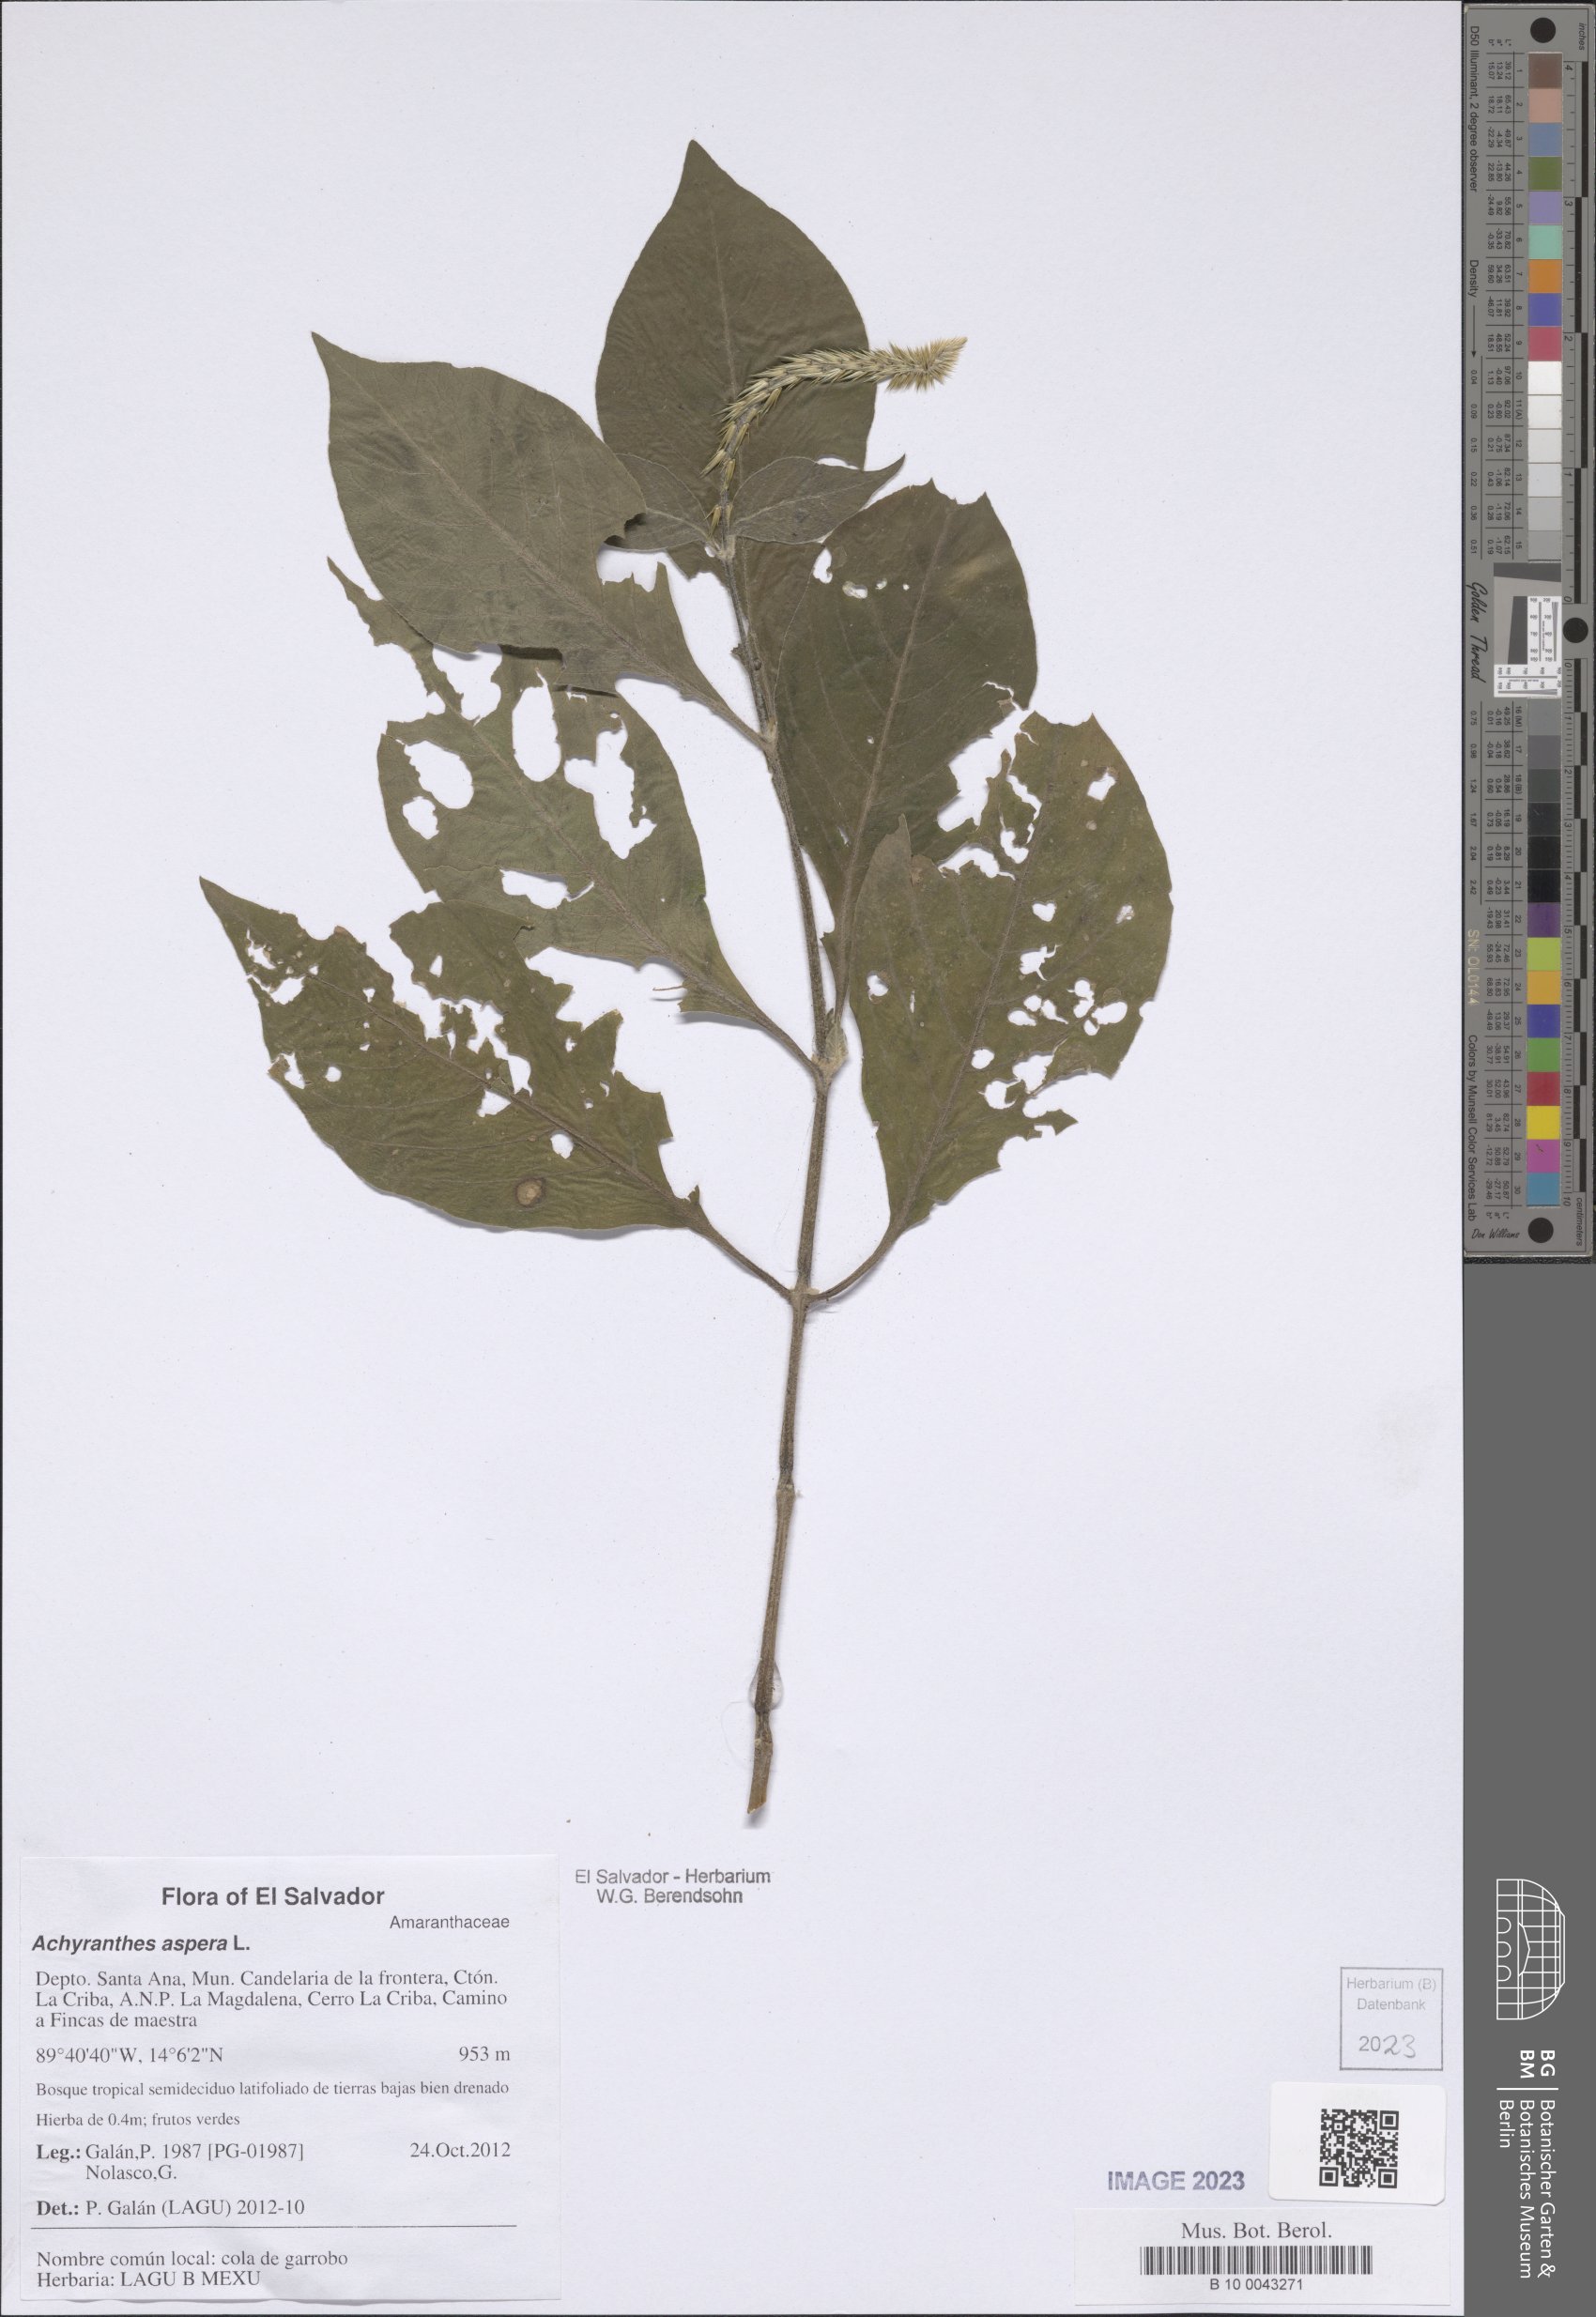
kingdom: Plantae
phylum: Tracheophyta
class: Magnoliopsida
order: Caryophyllales
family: Amaranthaceae
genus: Achyranthes
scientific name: Achyranthes aspera
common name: Devil's horsewhip
